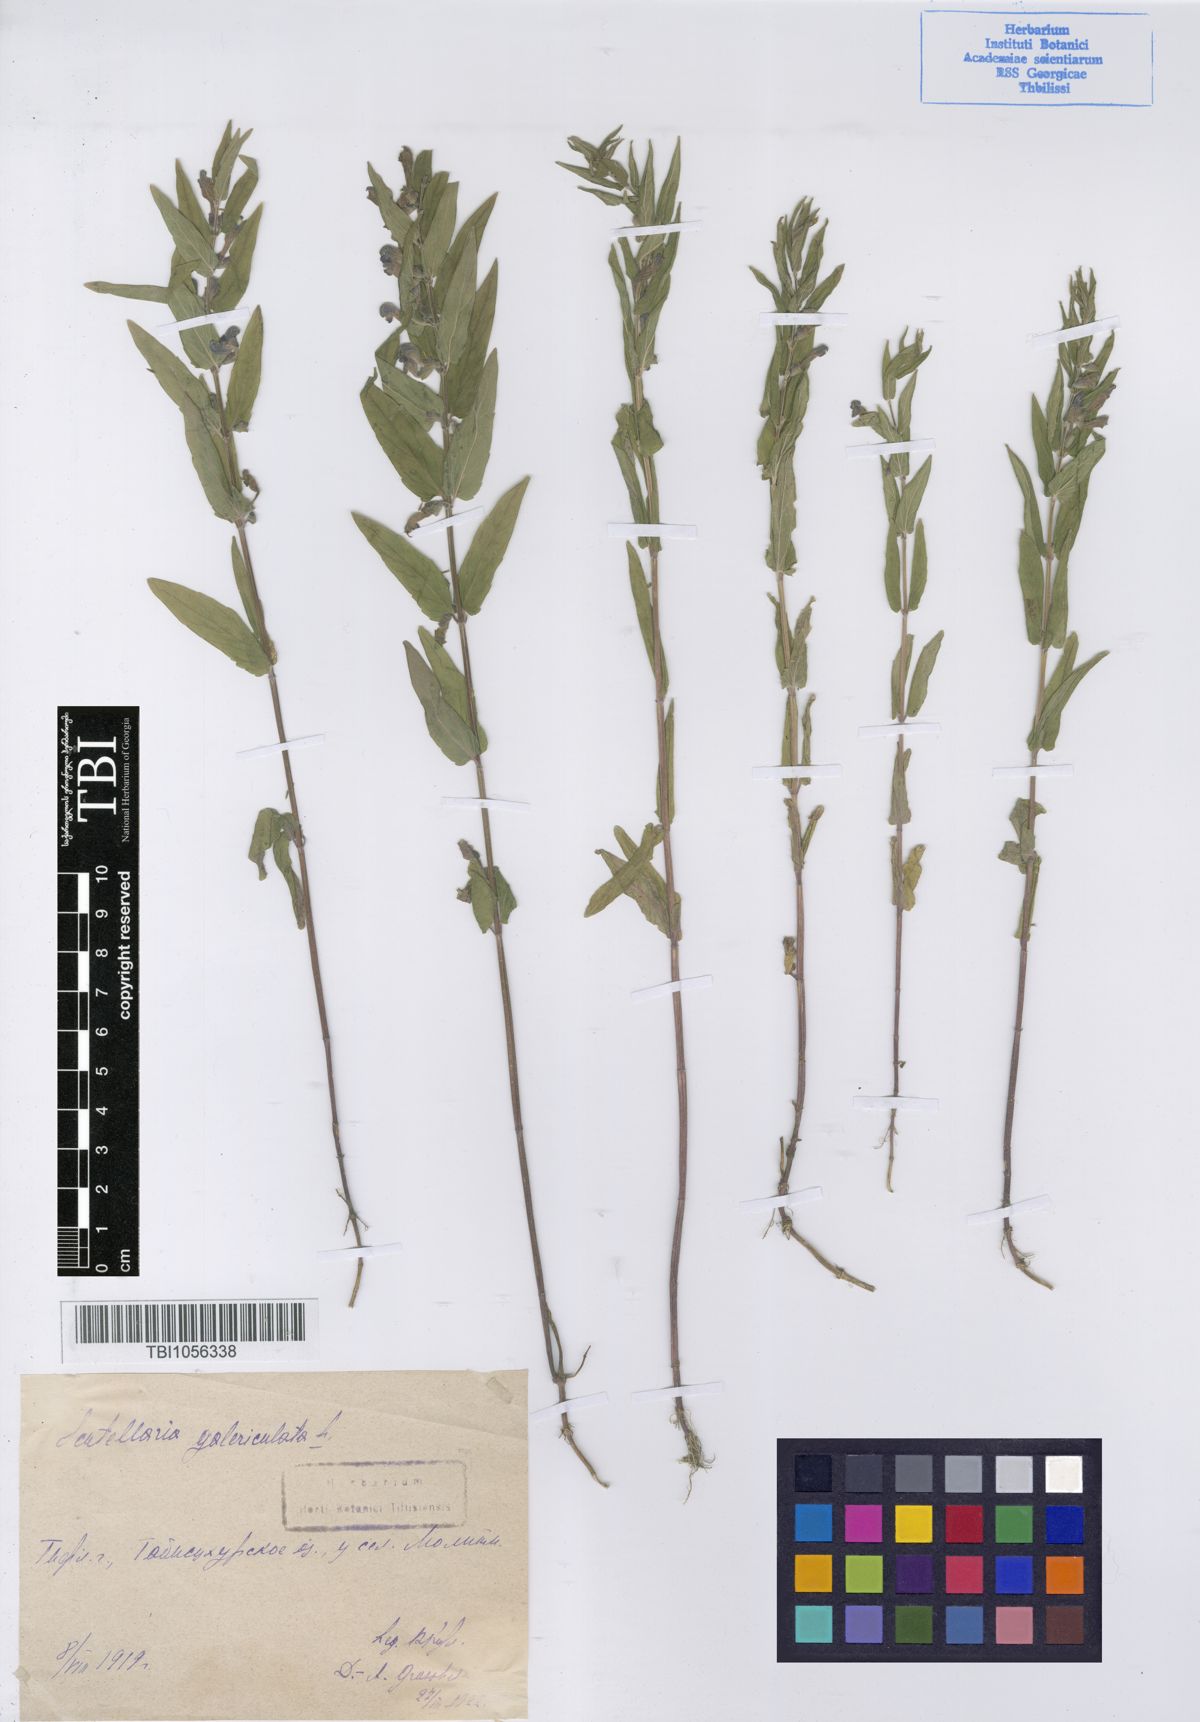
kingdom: Plantae
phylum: Tracheophyta
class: Magnoliopsida
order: Lamiales
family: Lamiaceae
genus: Scutellaria
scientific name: Scutellaria galericulata
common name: Skullcap
